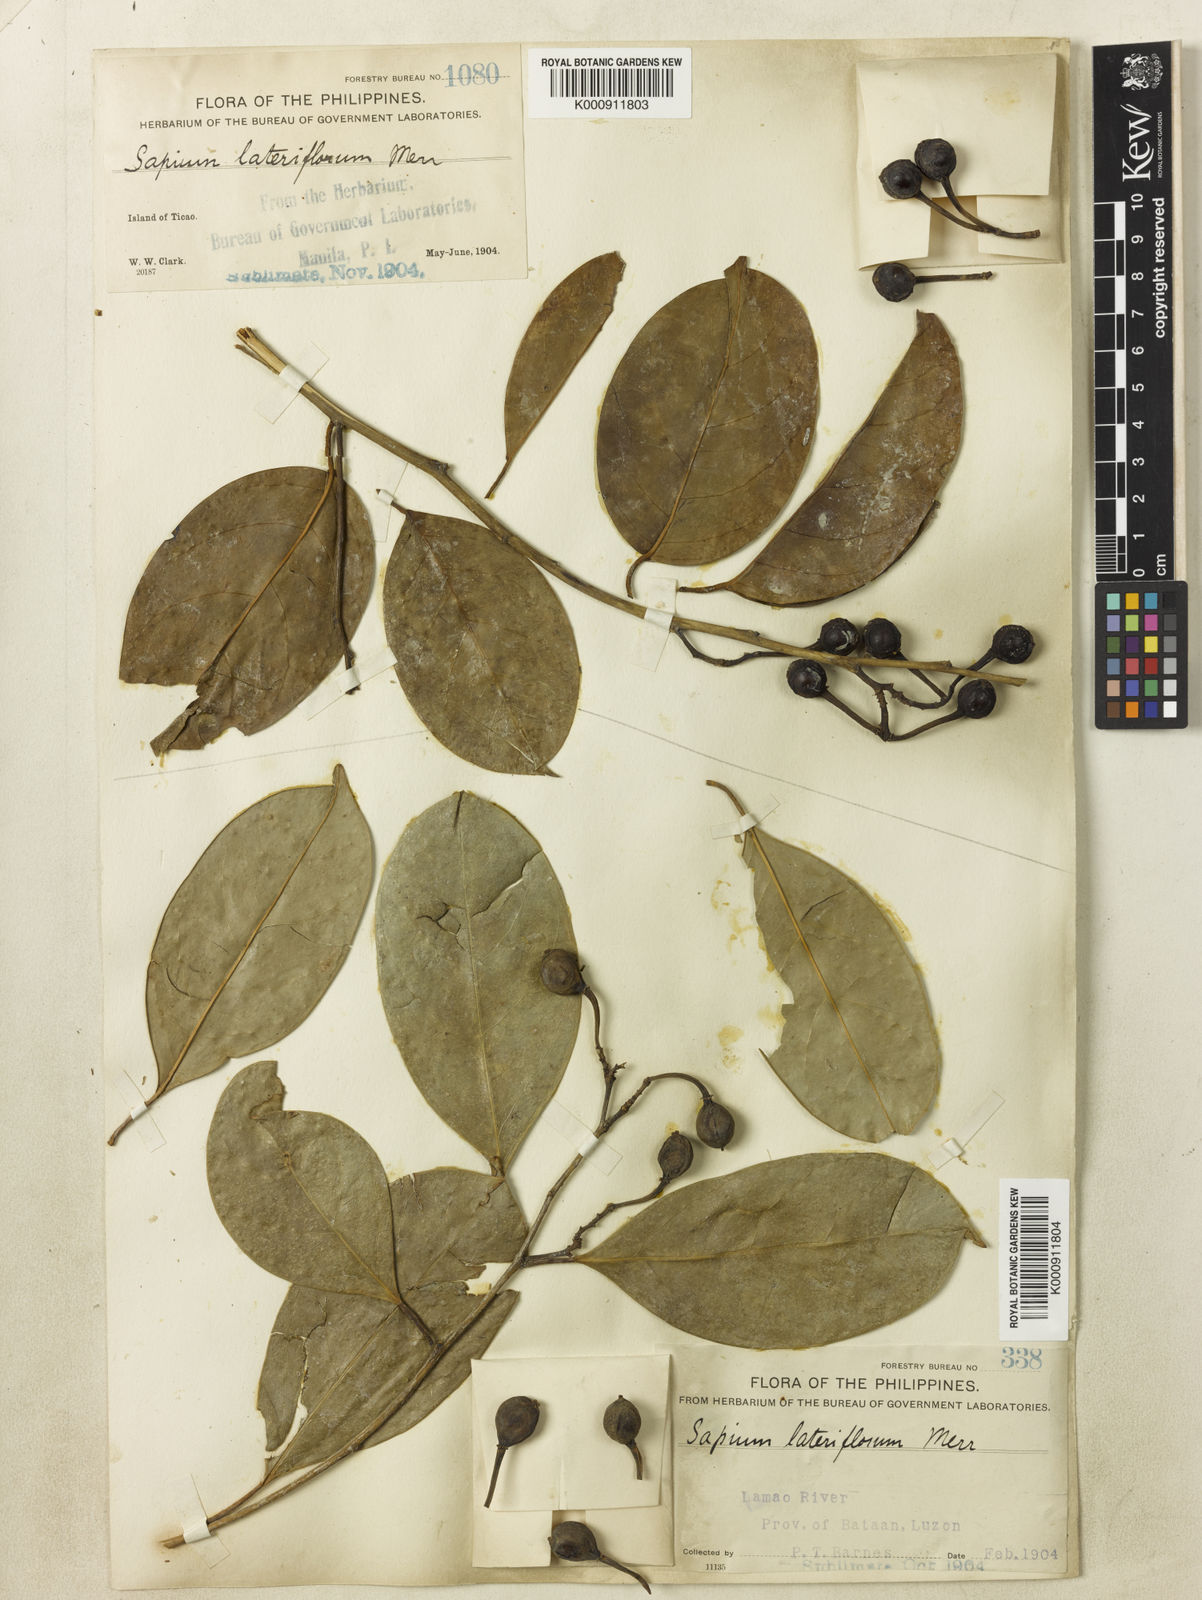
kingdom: Plantae
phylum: Tracheophyta
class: Magnoliopsida
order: Malpighiales
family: Euphorbiaceae
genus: Balakata
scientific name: Balakata luzonica
